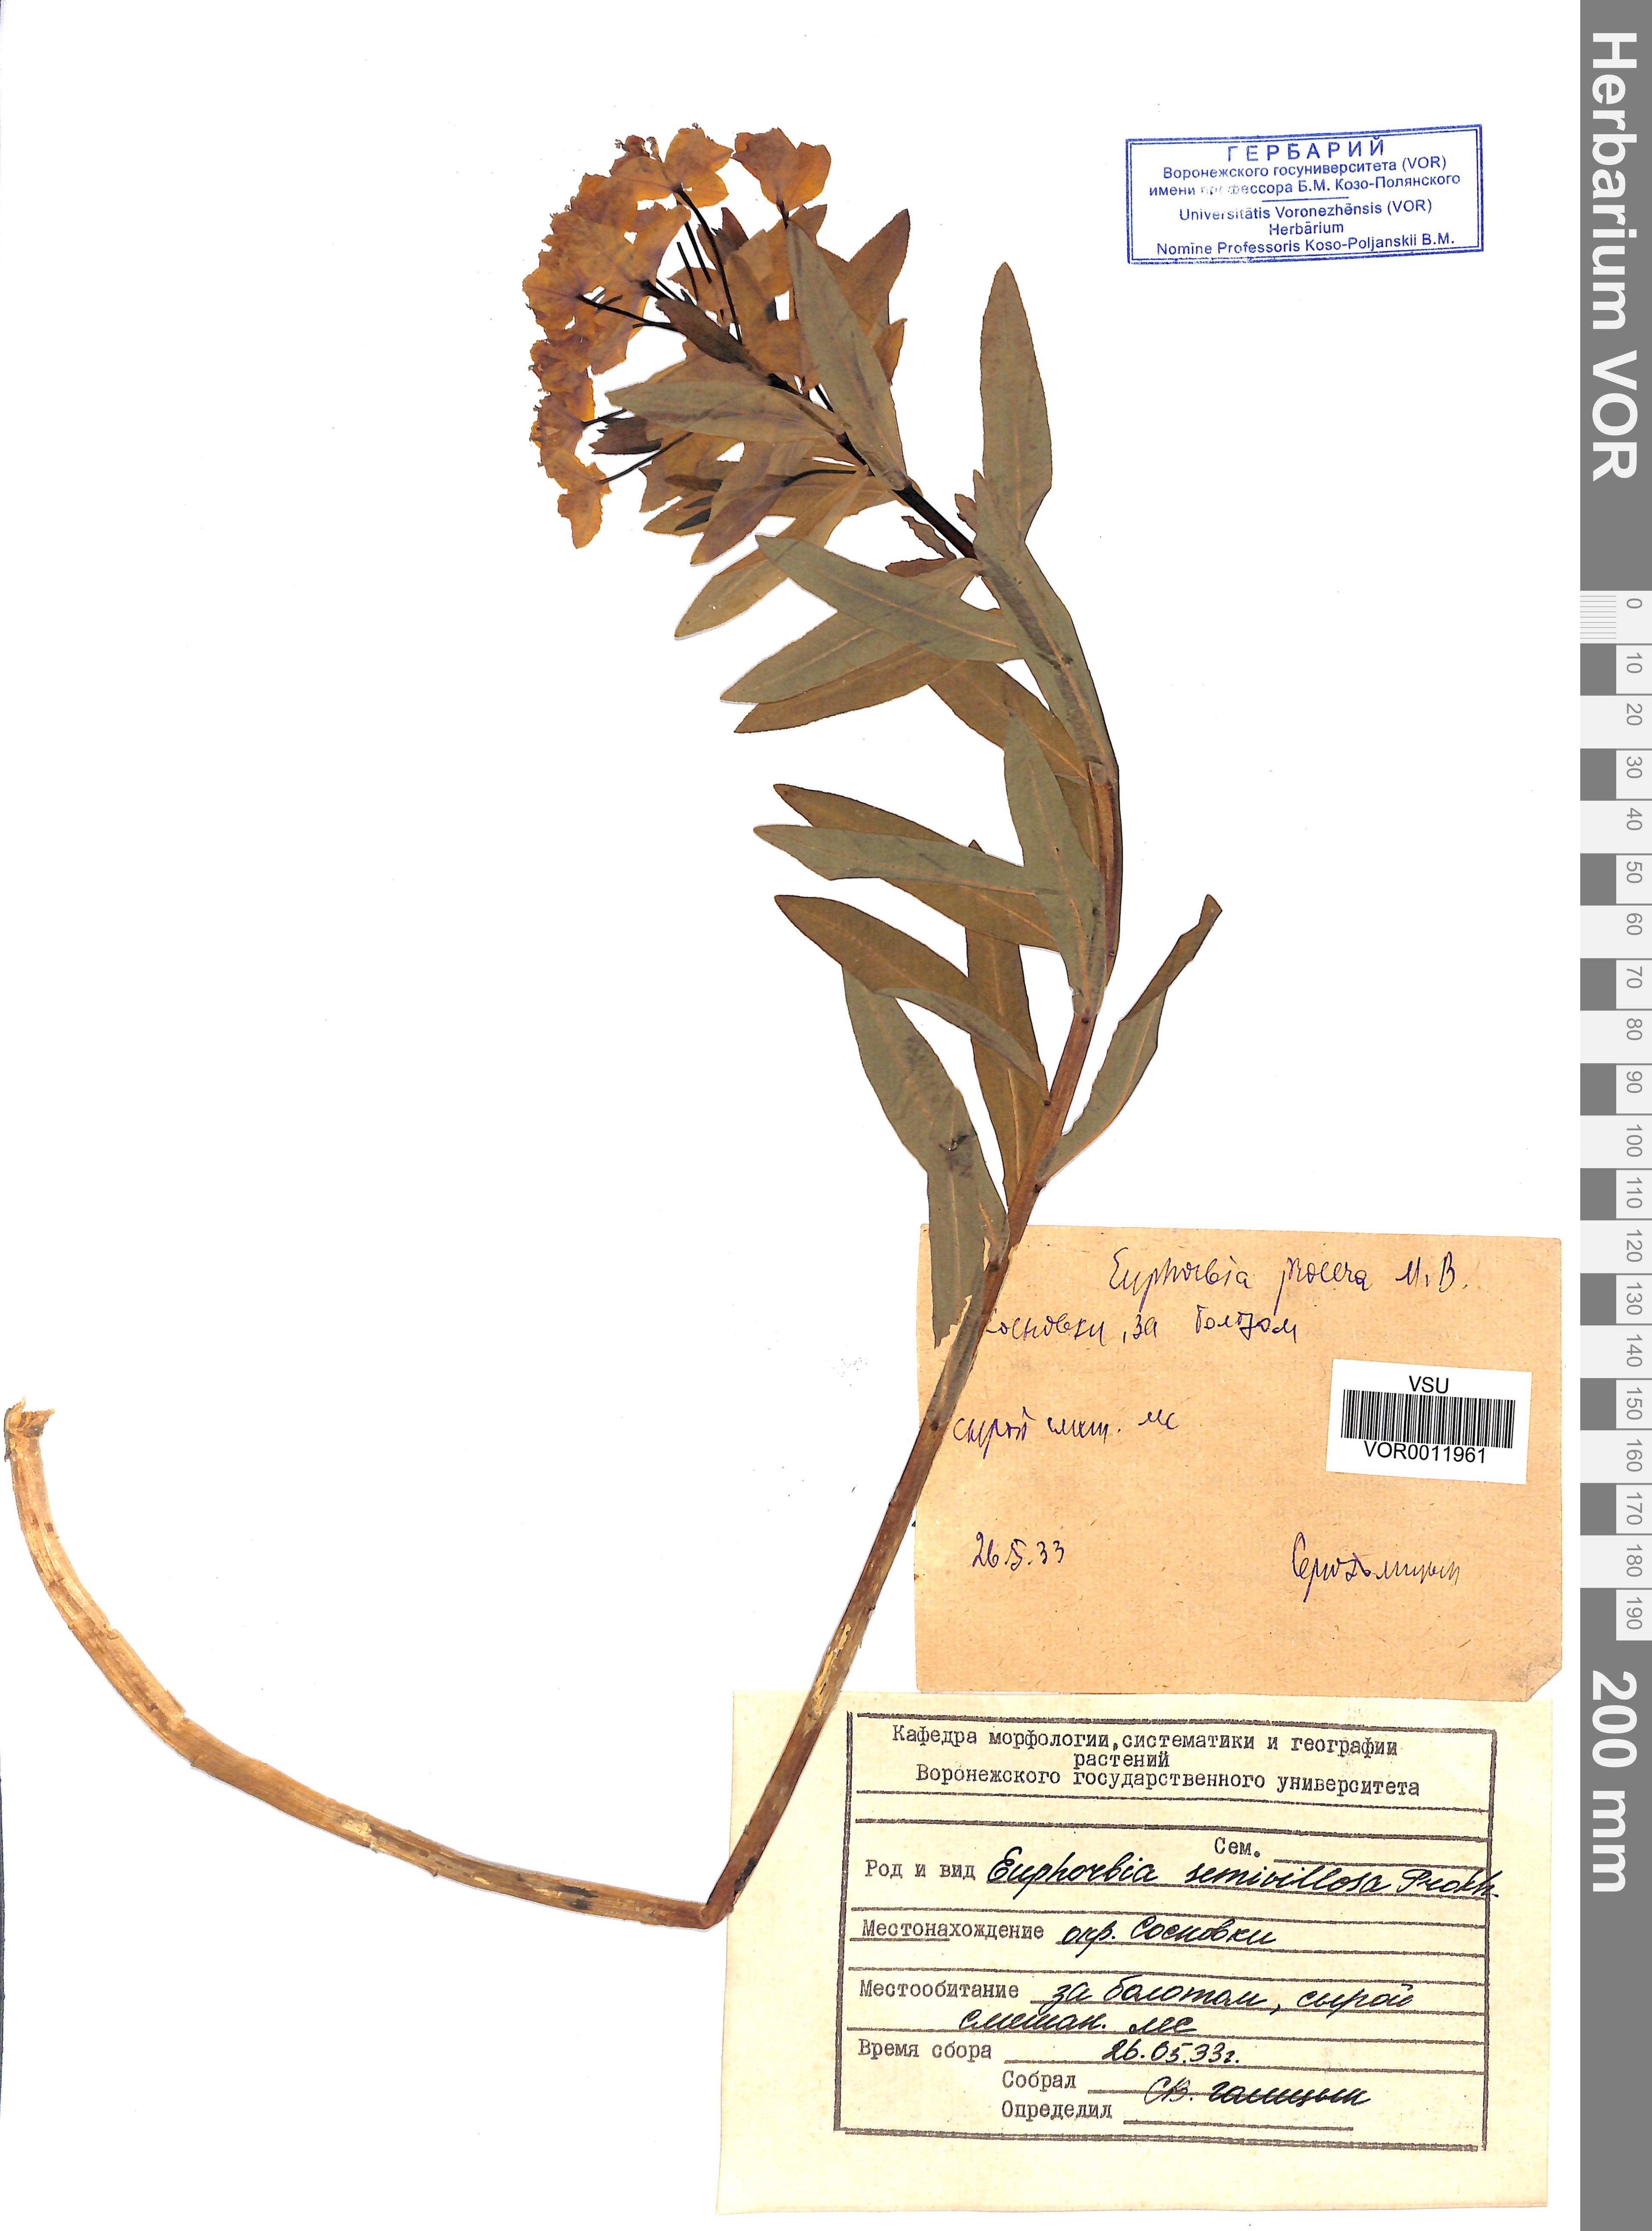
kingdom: Plantae
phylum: Tracheophyta
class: Magnoliopsida
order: Malpighiales
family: Euphorbiaceae
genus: Euphorbia
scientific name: Euphorbia semivillosa
